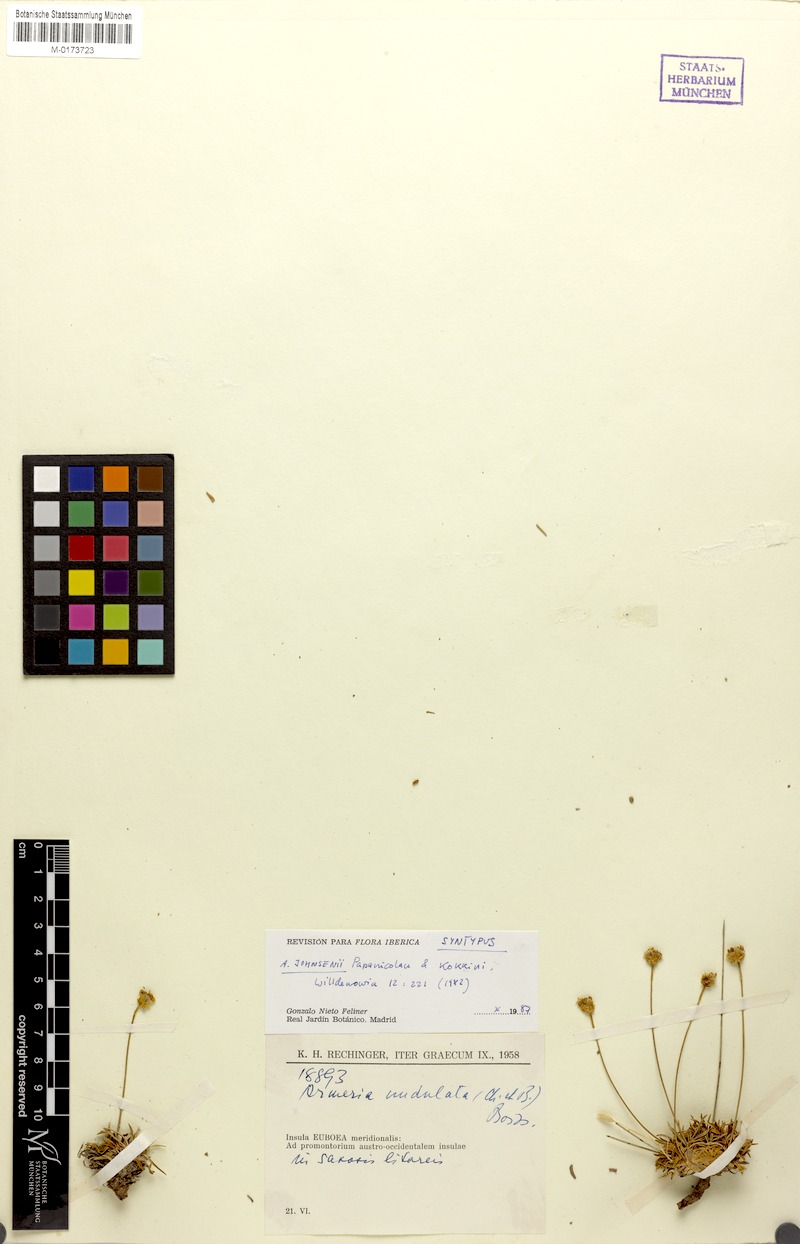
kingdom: Plantae
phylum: Tracheophyta
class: Magnoliopsida
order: Caryophyllales
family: Plumbaginaceae
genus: Armeria
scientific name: Armeria johnsenii
